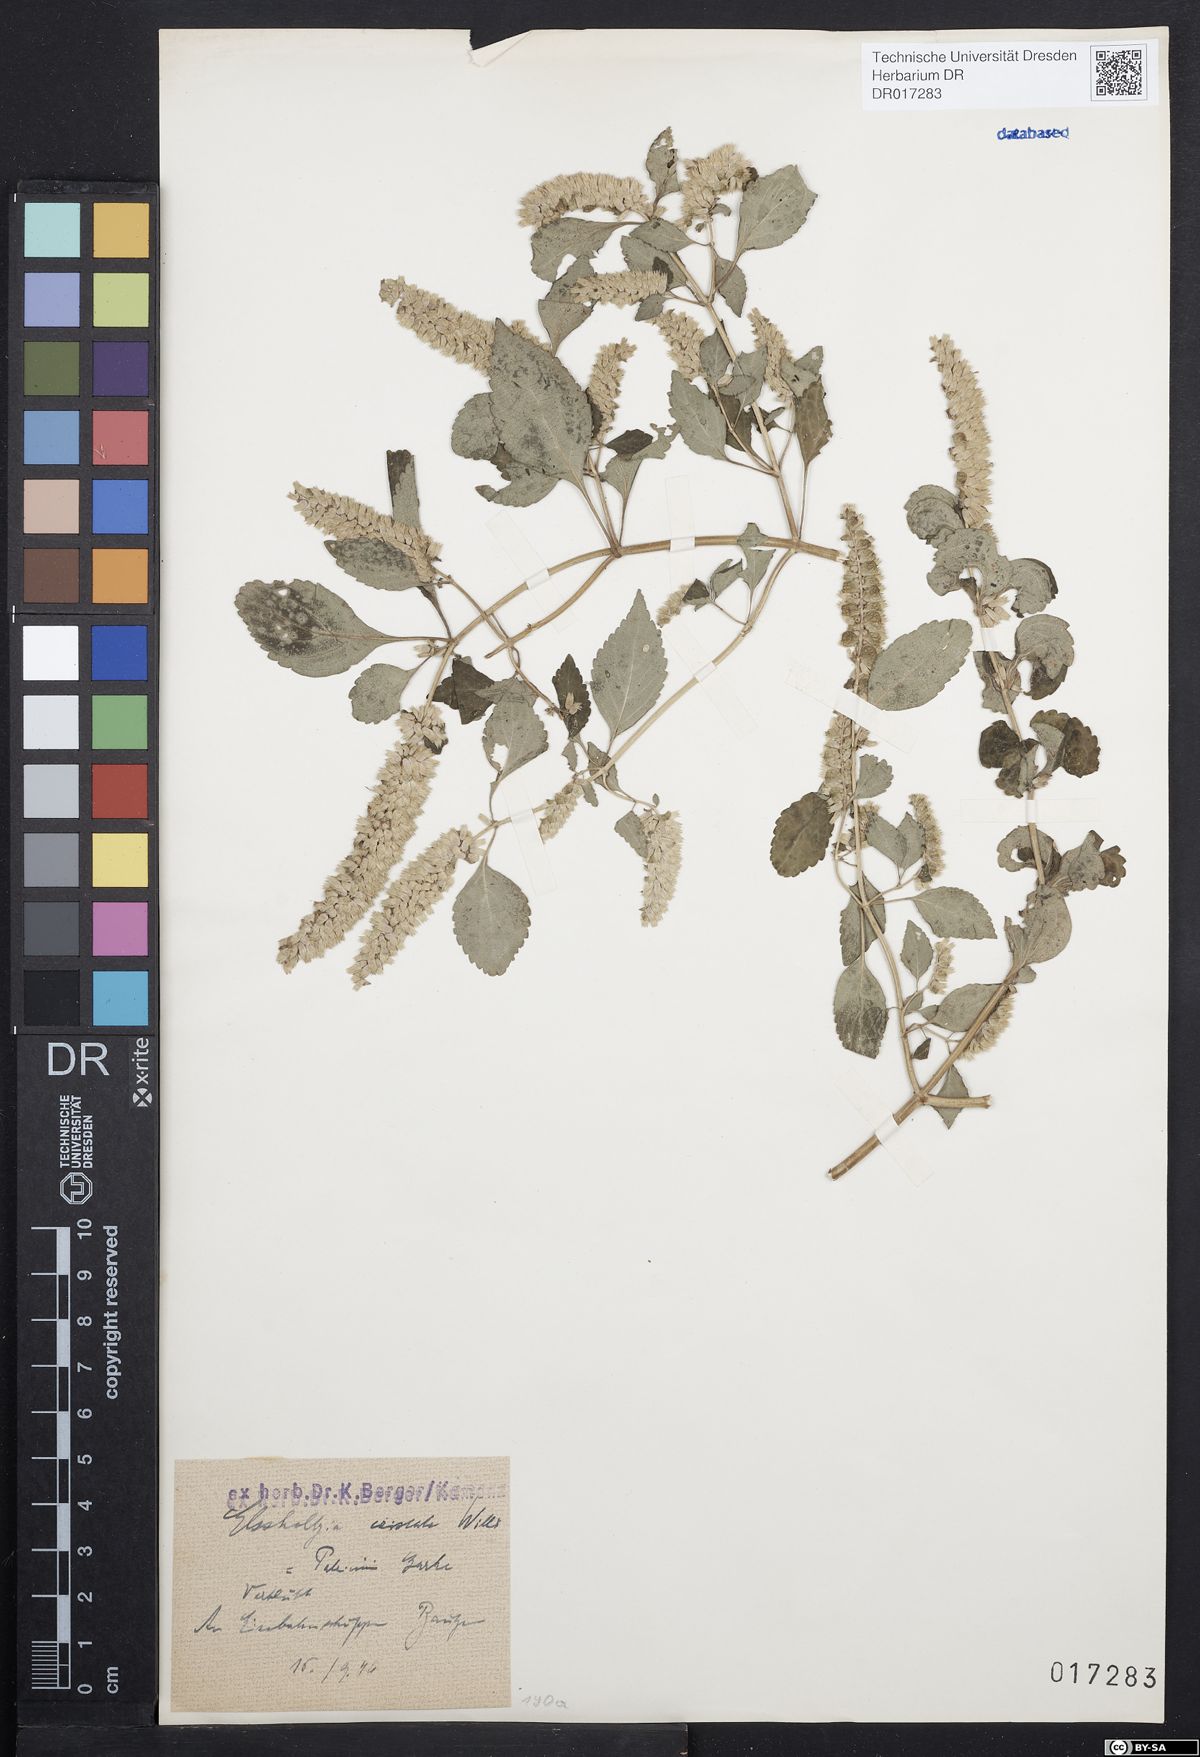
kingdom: Plantae
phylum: Tracheophyta
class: Magnoliopsida
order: Lamiales
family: Lamiaceae
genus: Elsholtzia
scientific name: Elsholtzia ciliata
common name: Ciliate elsholtzia
